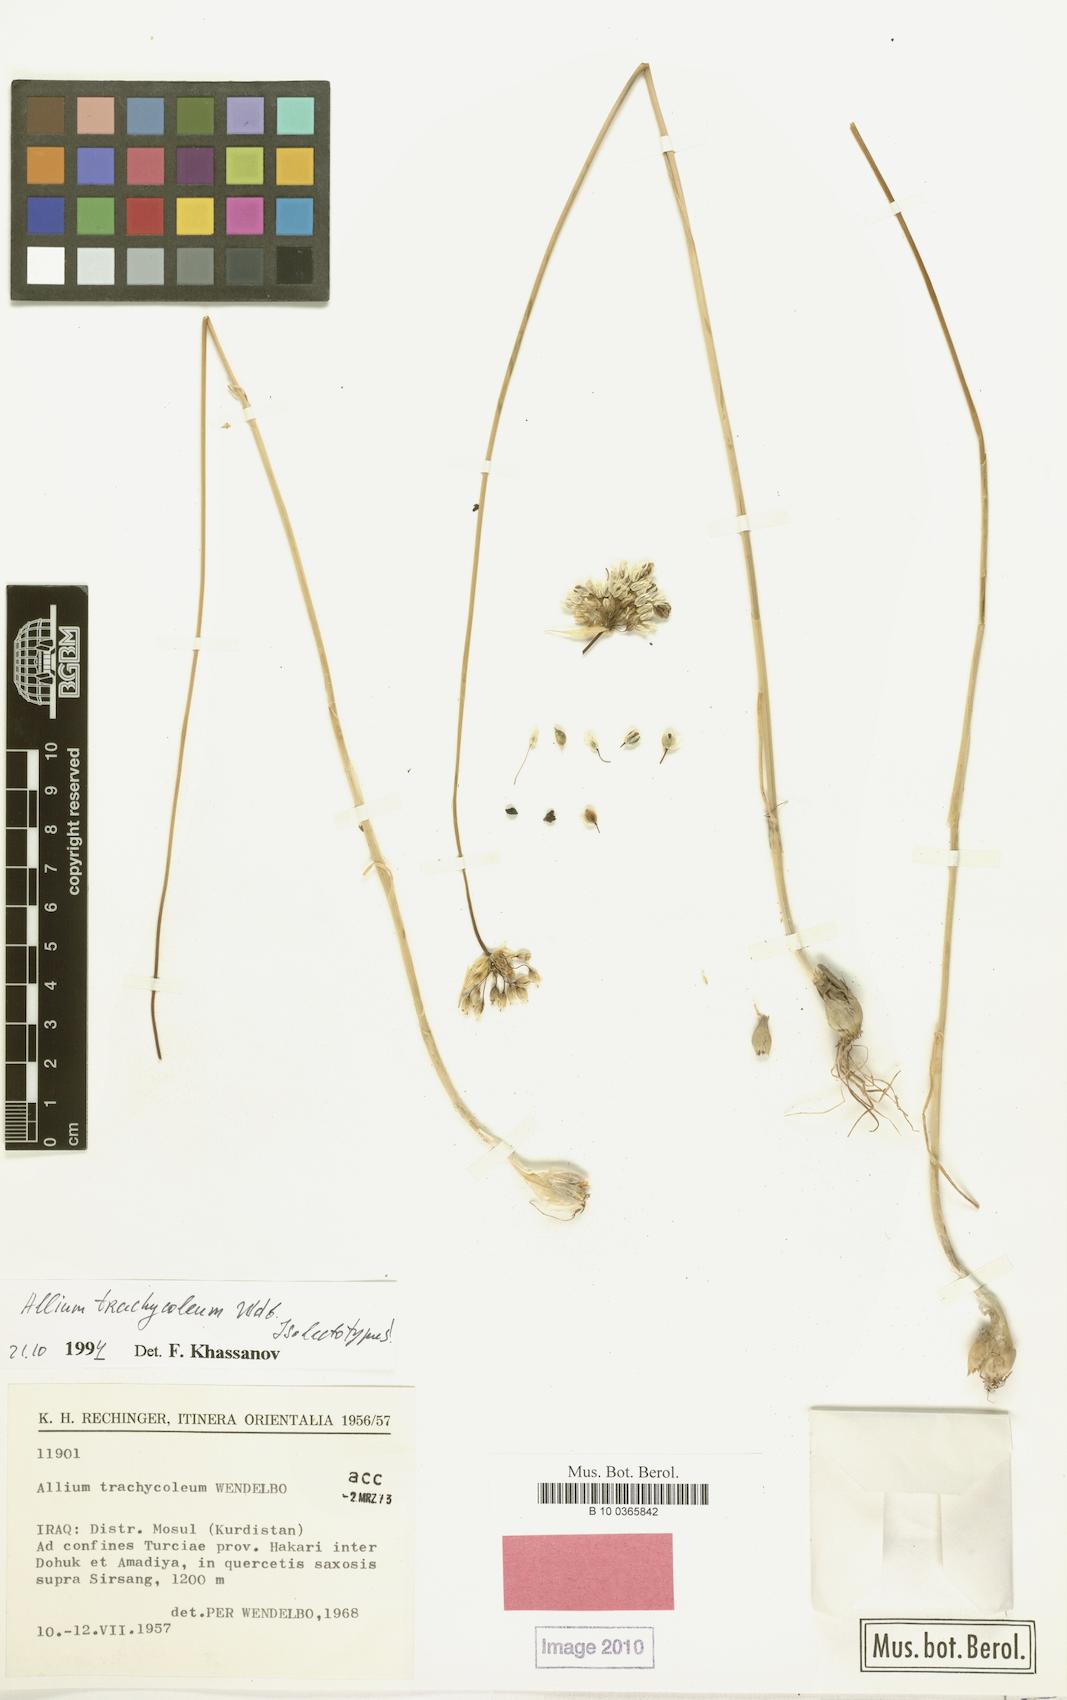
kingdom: Plantae
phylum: Tracheophyta
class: Liliopsida
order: Asparagales
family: Amaryllidaceae
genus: Allium
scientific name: Allium trachycoleum
